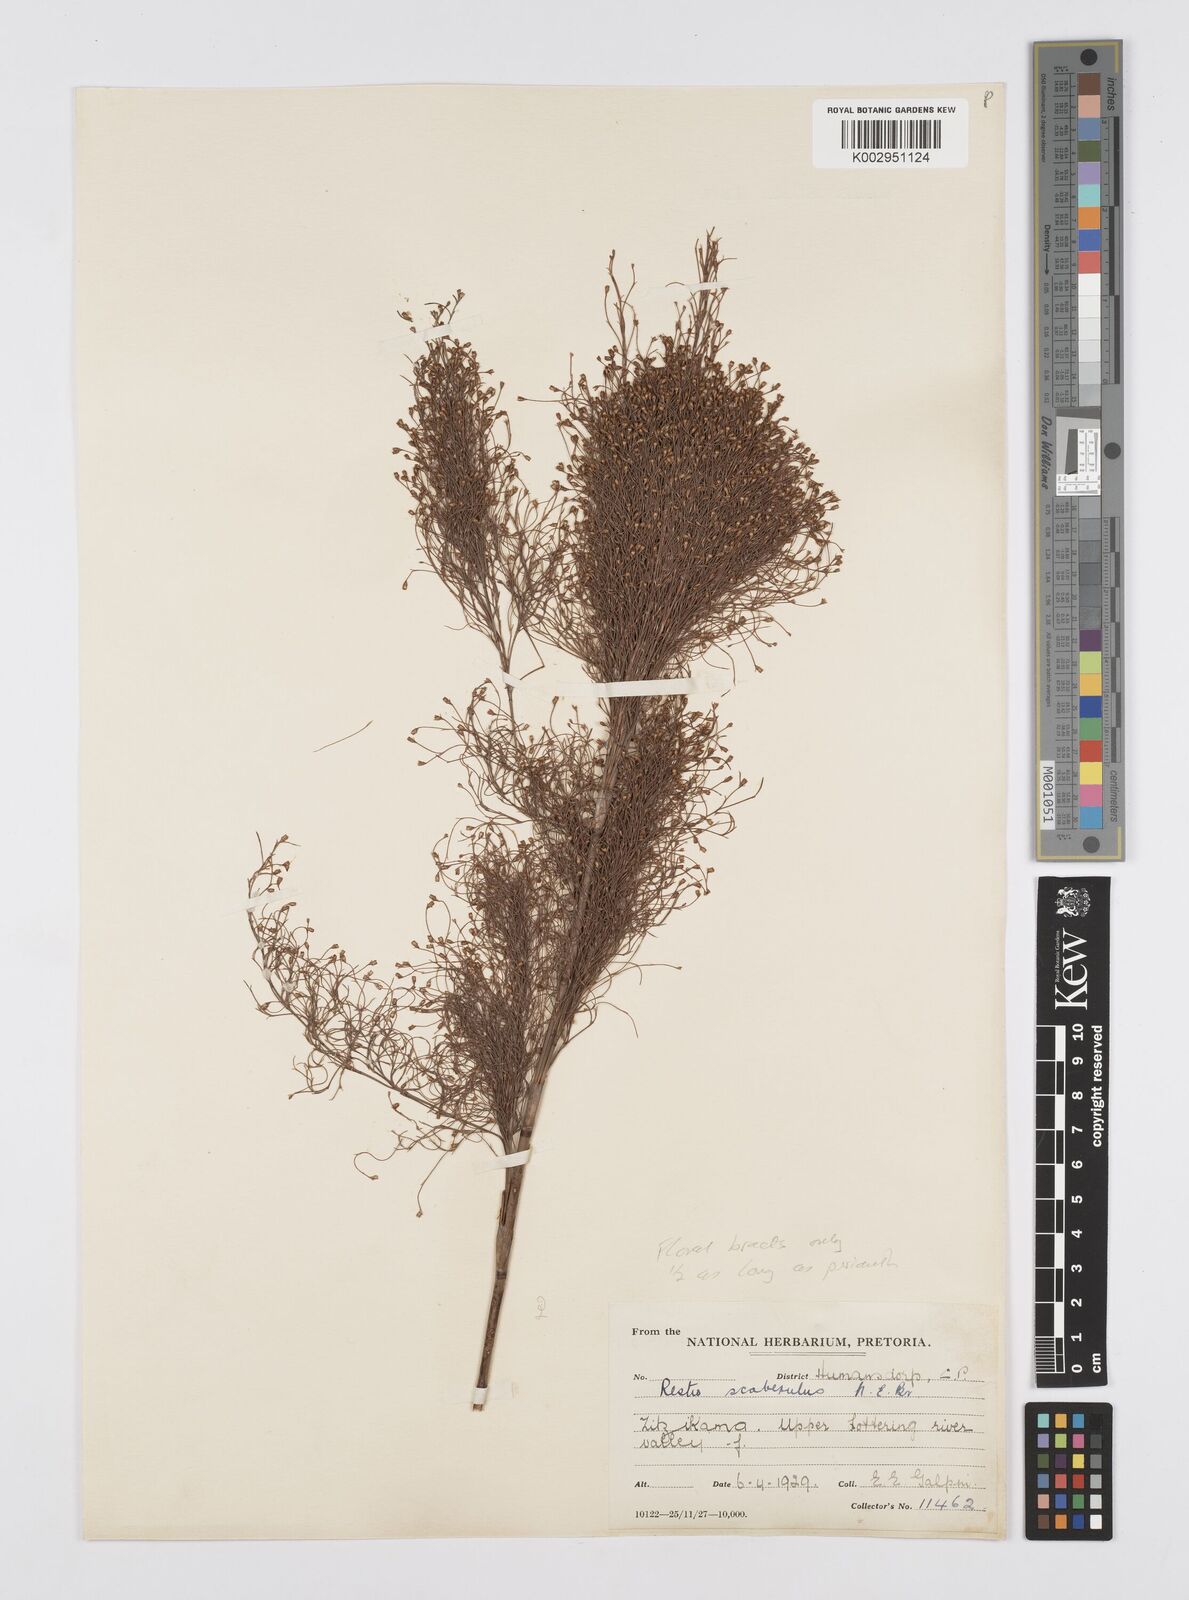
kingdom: Plantae
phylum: Tracheophyta
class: Liliopsida
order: Poales
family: Restionaceae
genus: Restio
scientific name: Restio fourcadei
